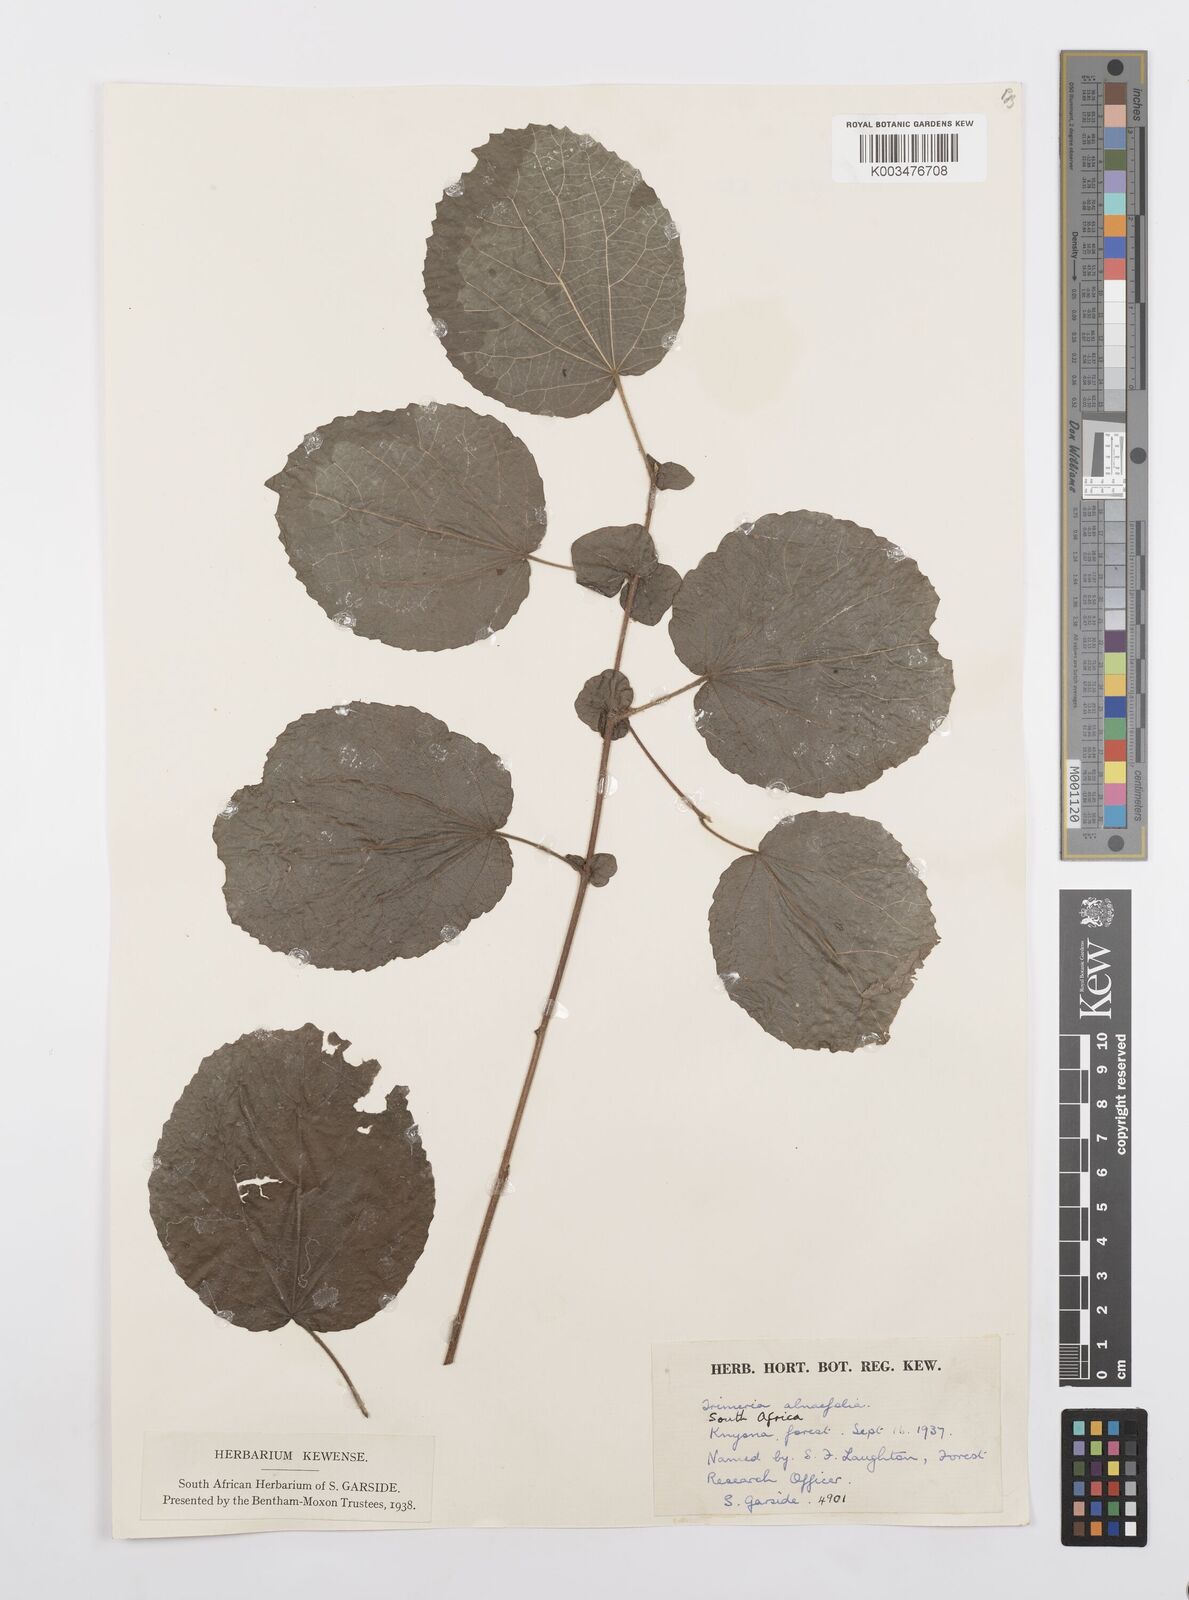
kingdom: Plantae
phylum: Tracheophyta
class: Magnoliopsida
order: Malpighiales
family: Salicaceae
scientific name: Salicaceae
